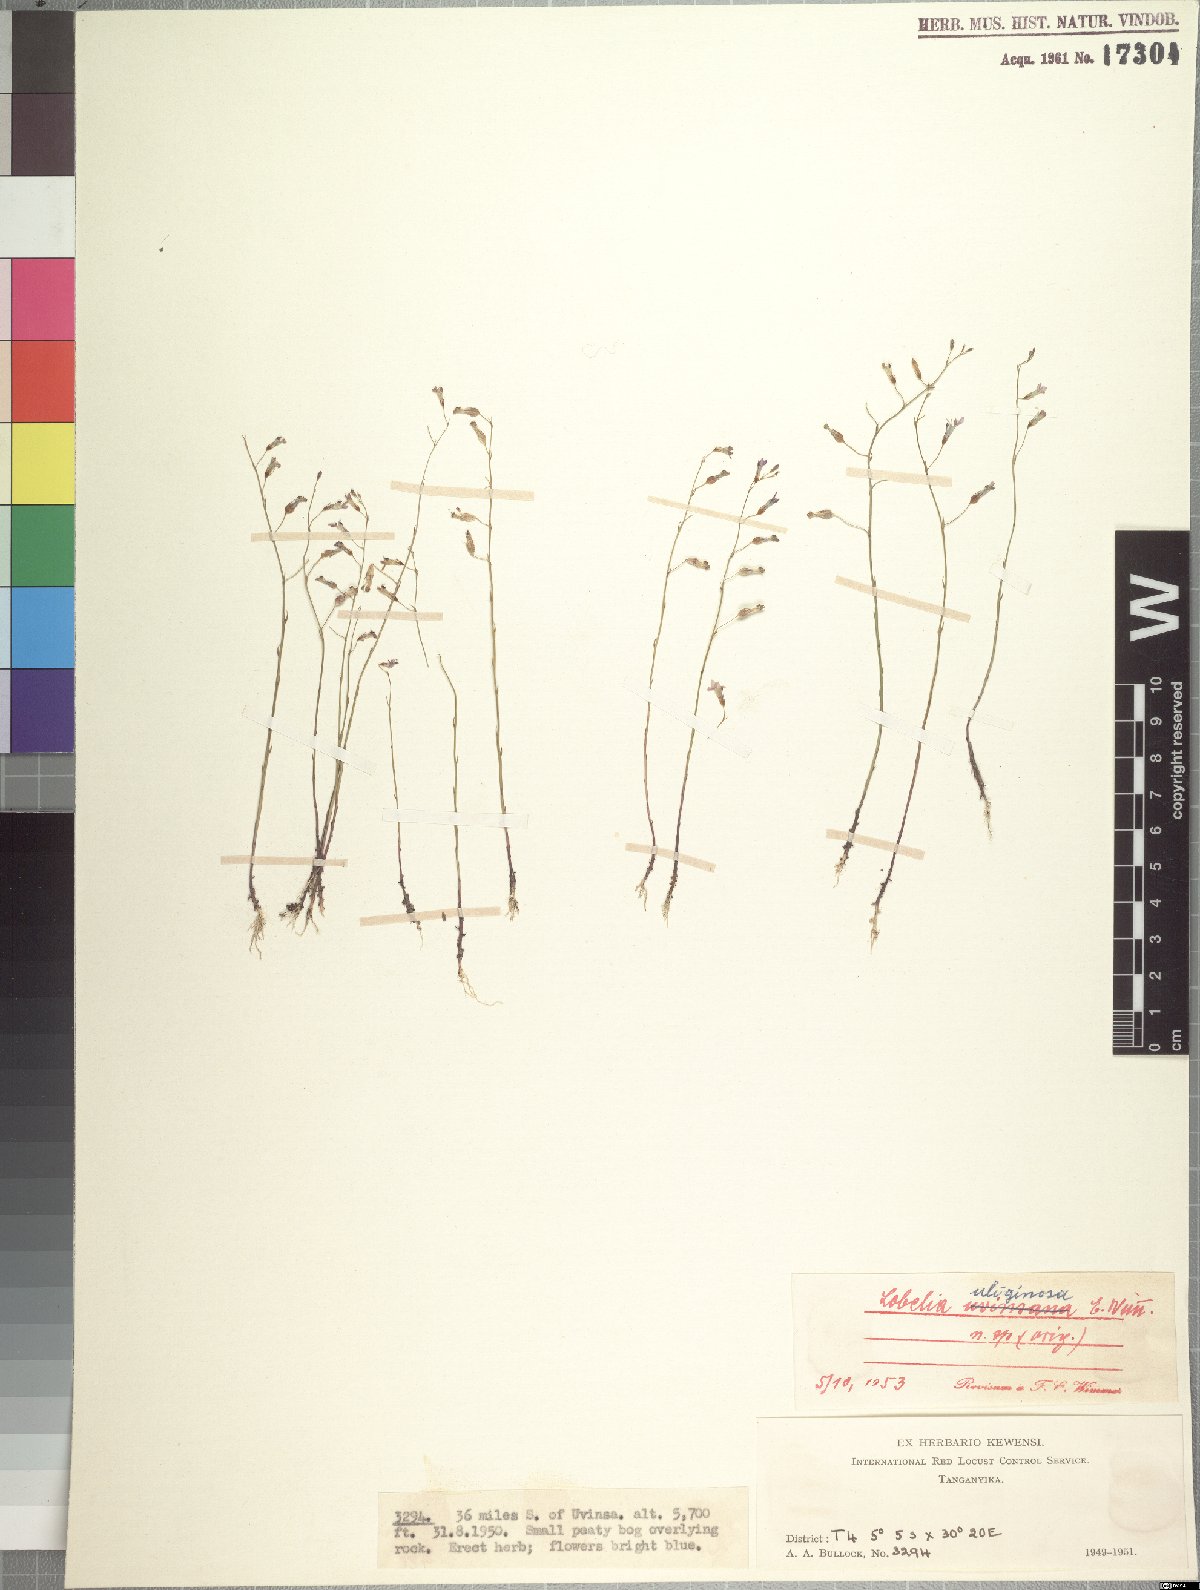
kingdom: Plantae
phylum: Tracheophyta
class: Magnoliopsida
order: Asterales
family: Campanulaceae
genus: Lobelia
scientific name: Lobelia uliginosa
